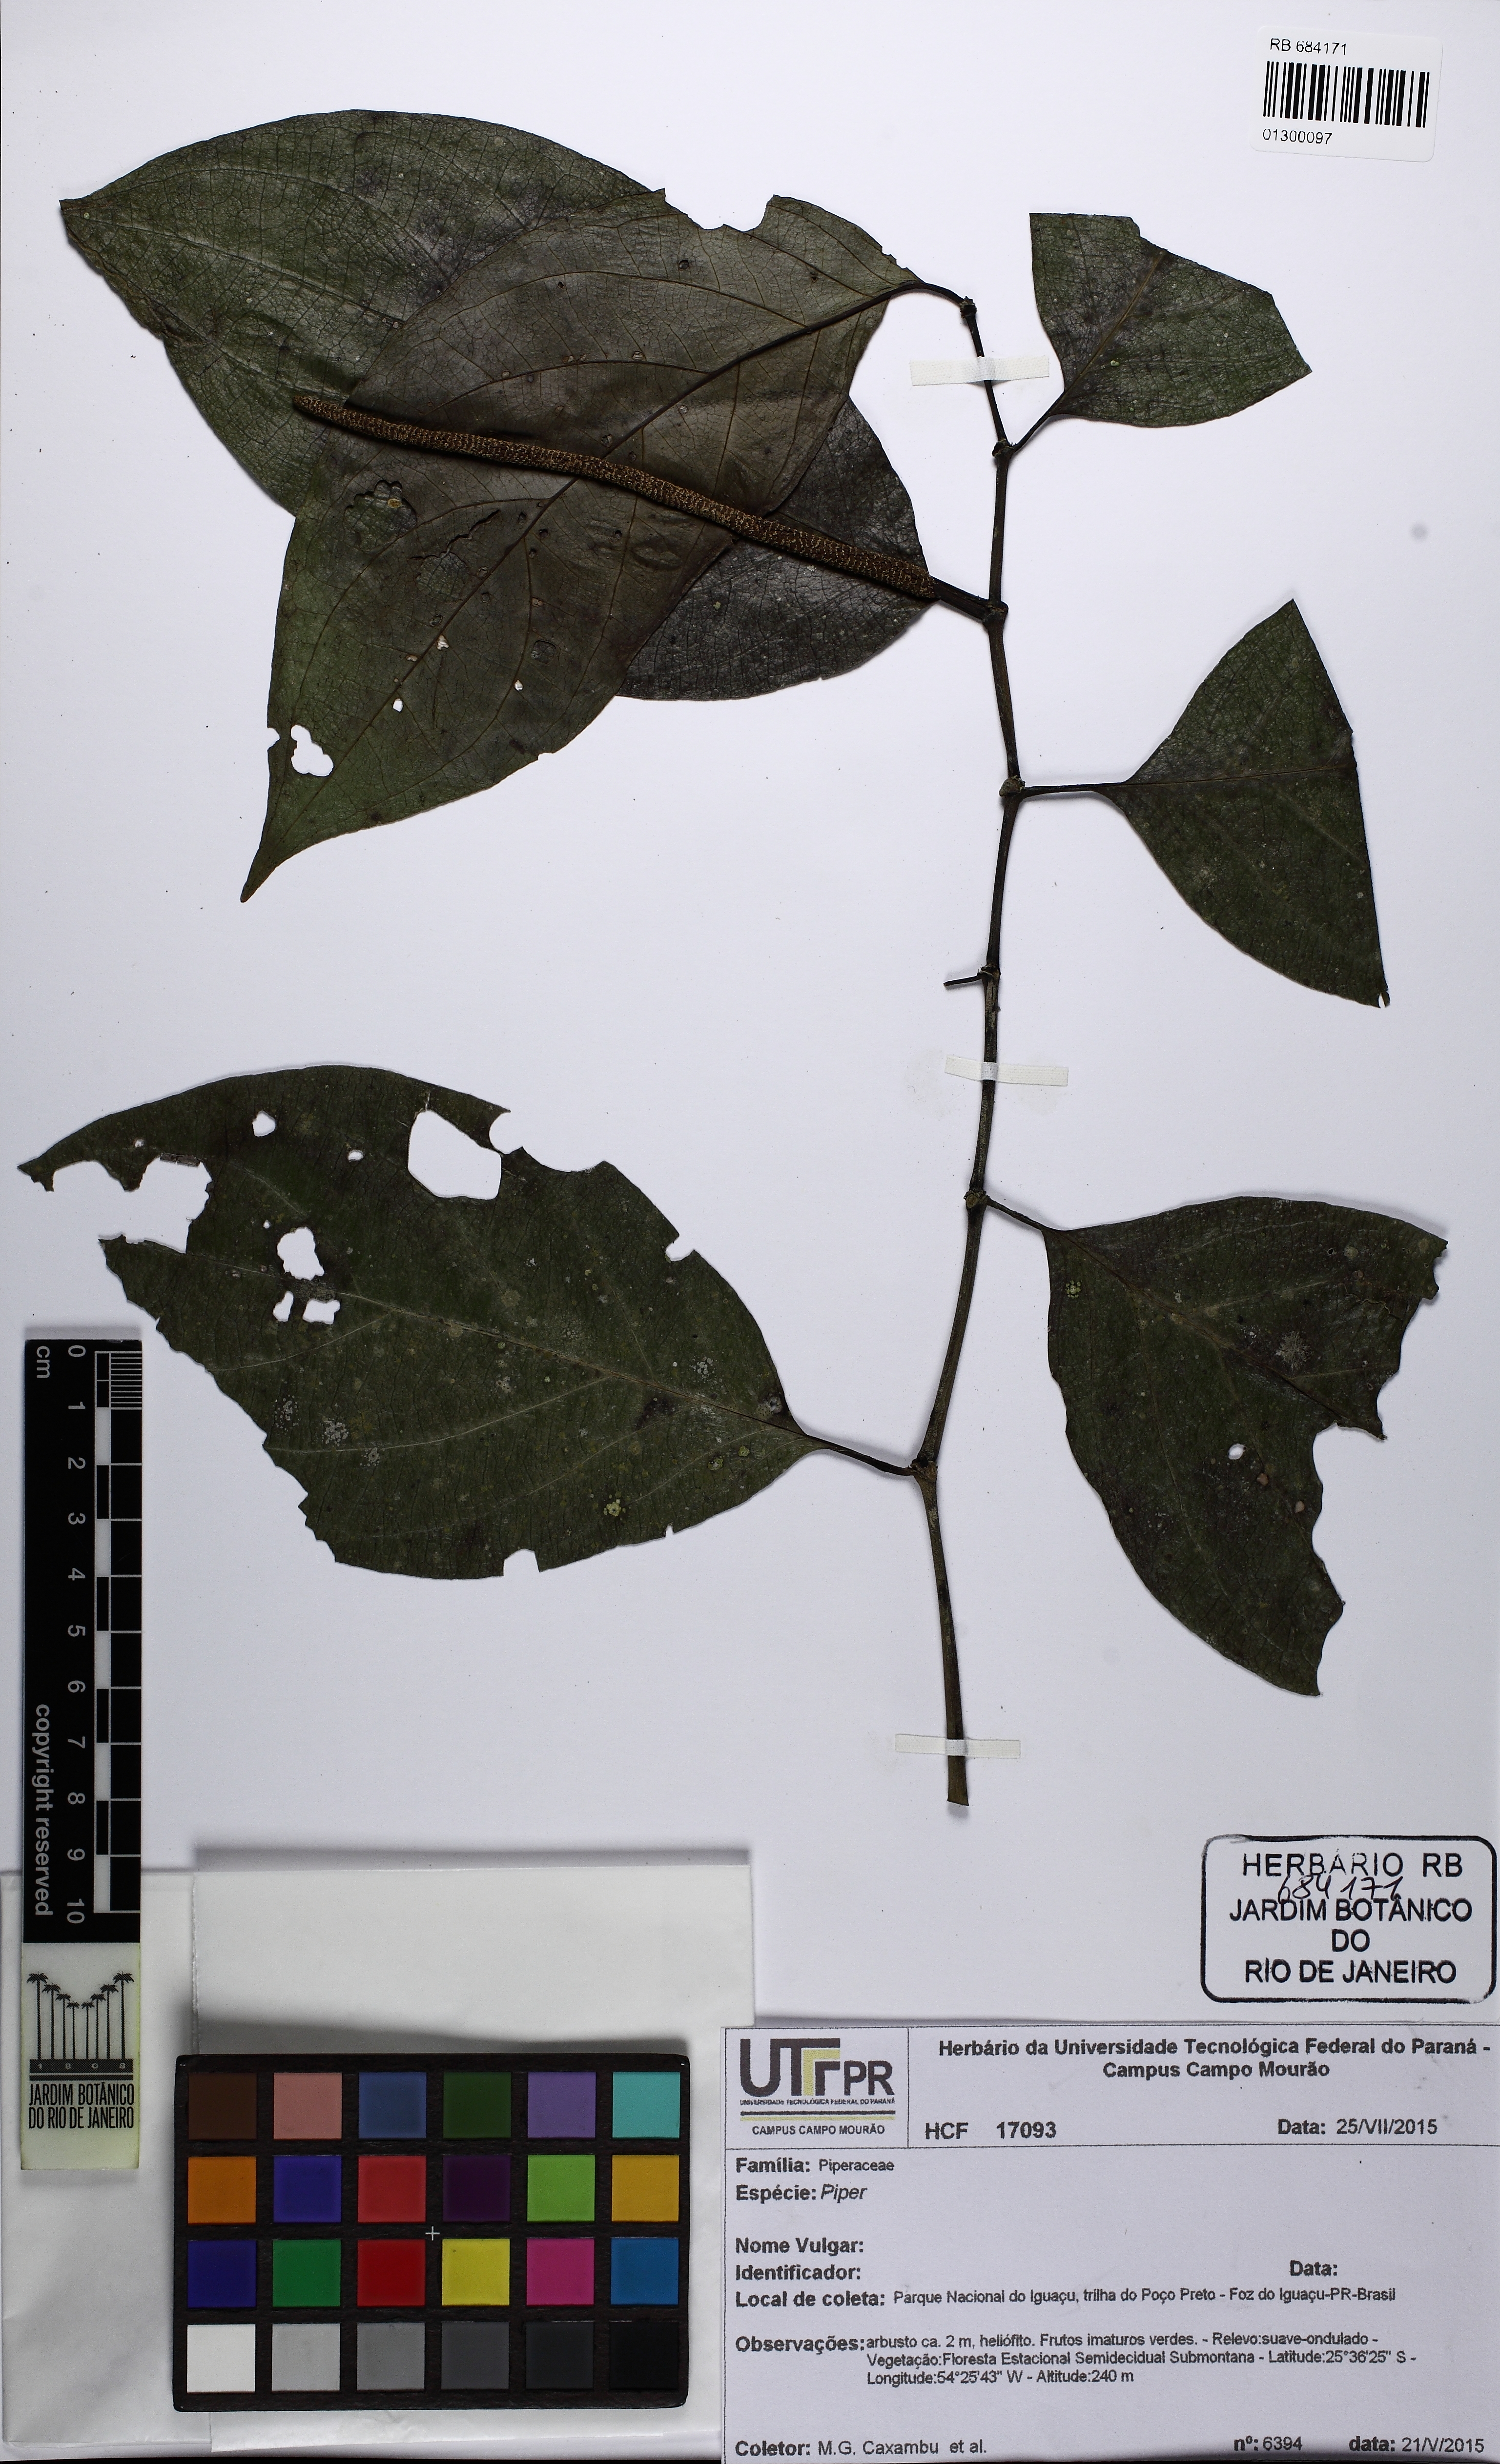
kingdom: Plantae
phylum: Tracheophyta
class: Magnoliopsida
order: Piperales
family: Piperaceae
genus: Piper
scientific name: Piper hemmendorffii
